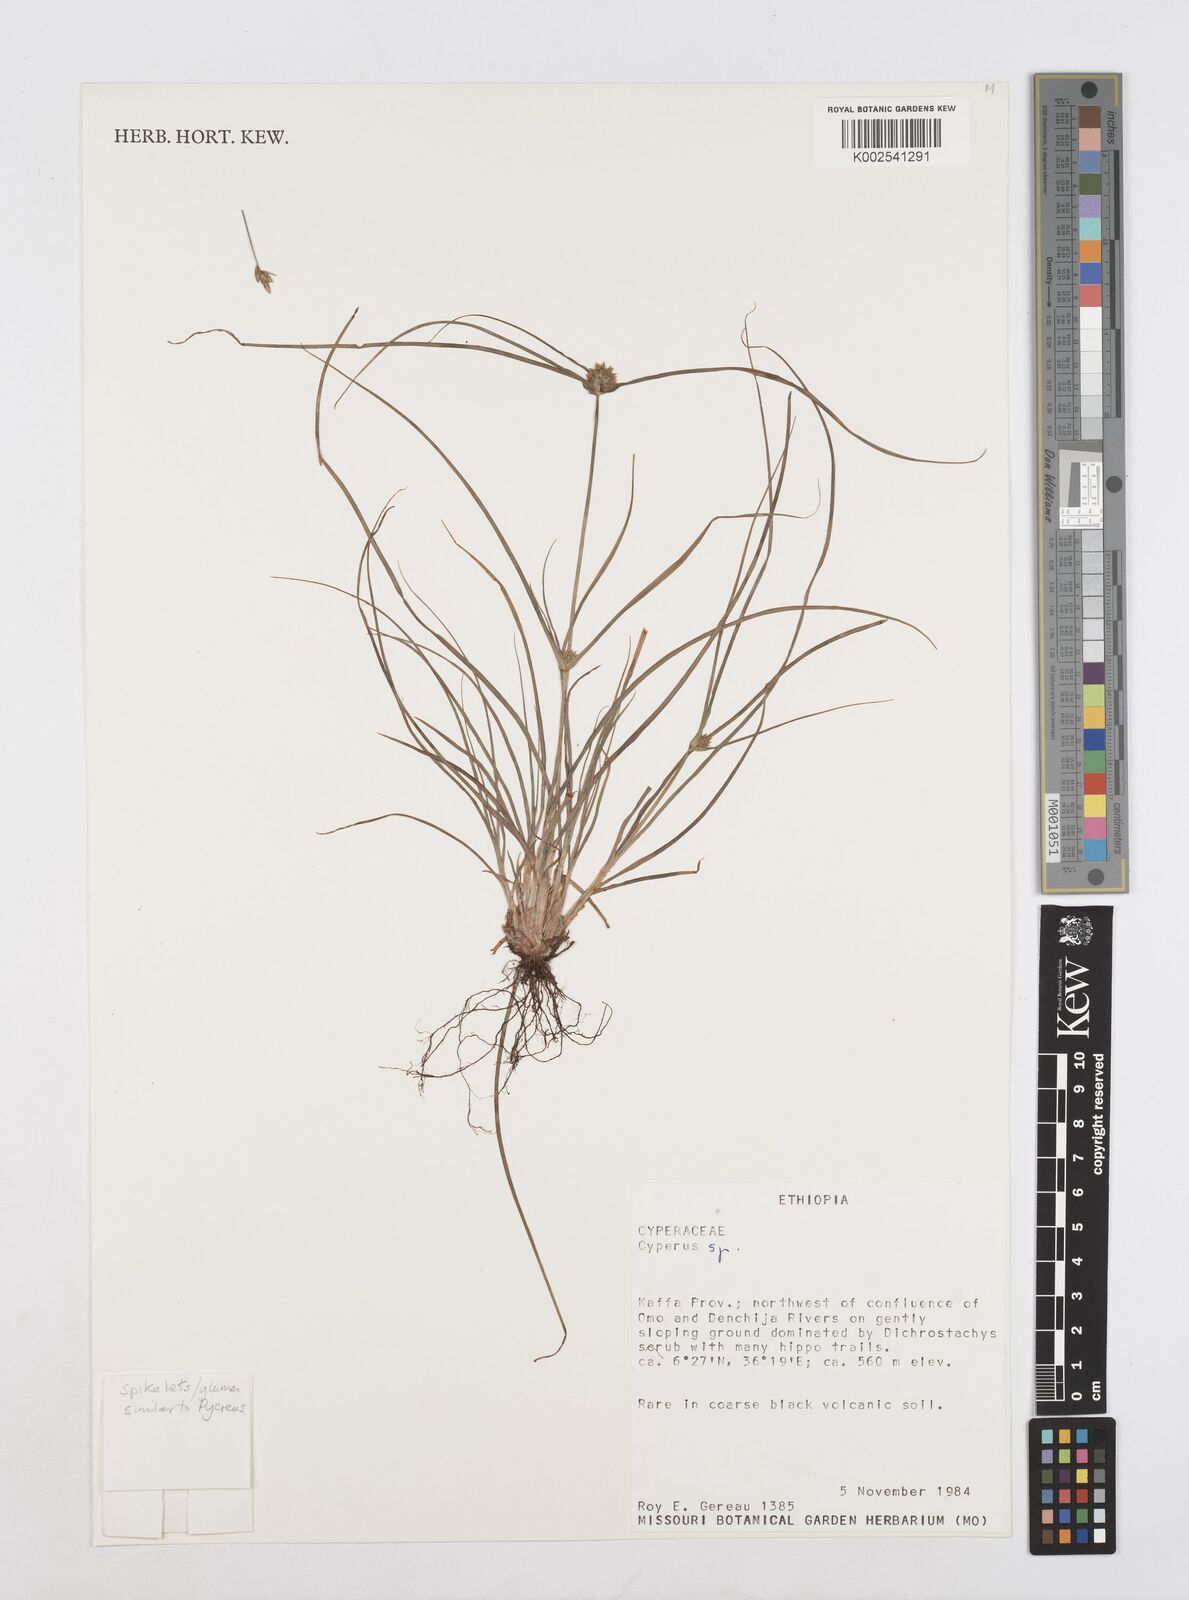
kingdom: Plantae
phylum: Tracheophyta
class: Liliopsida
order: Poales
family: Cyperaceae
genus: Cyperus
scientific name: Cyperus
